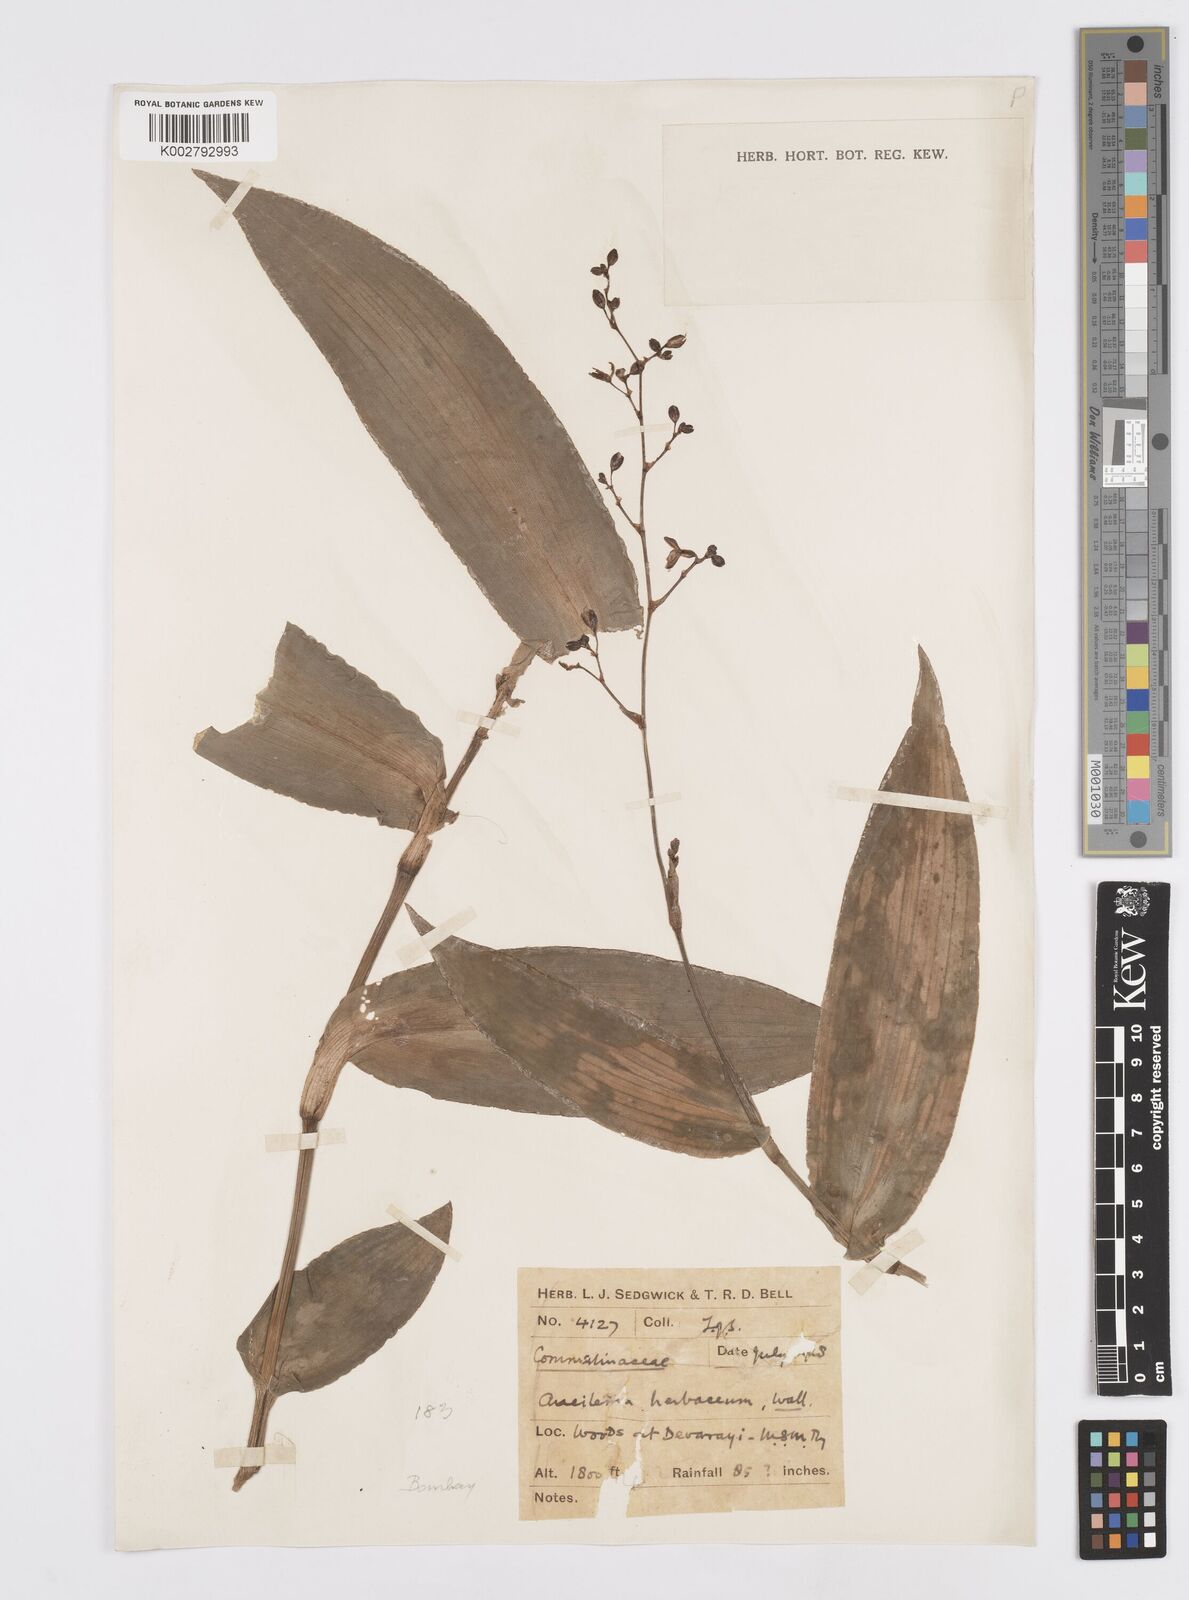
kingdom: Plantae
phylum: Tracheophyta
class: Liliopsida
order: Commelinales
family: Commelinaceae
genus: Murdannia
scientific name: Murdannia
